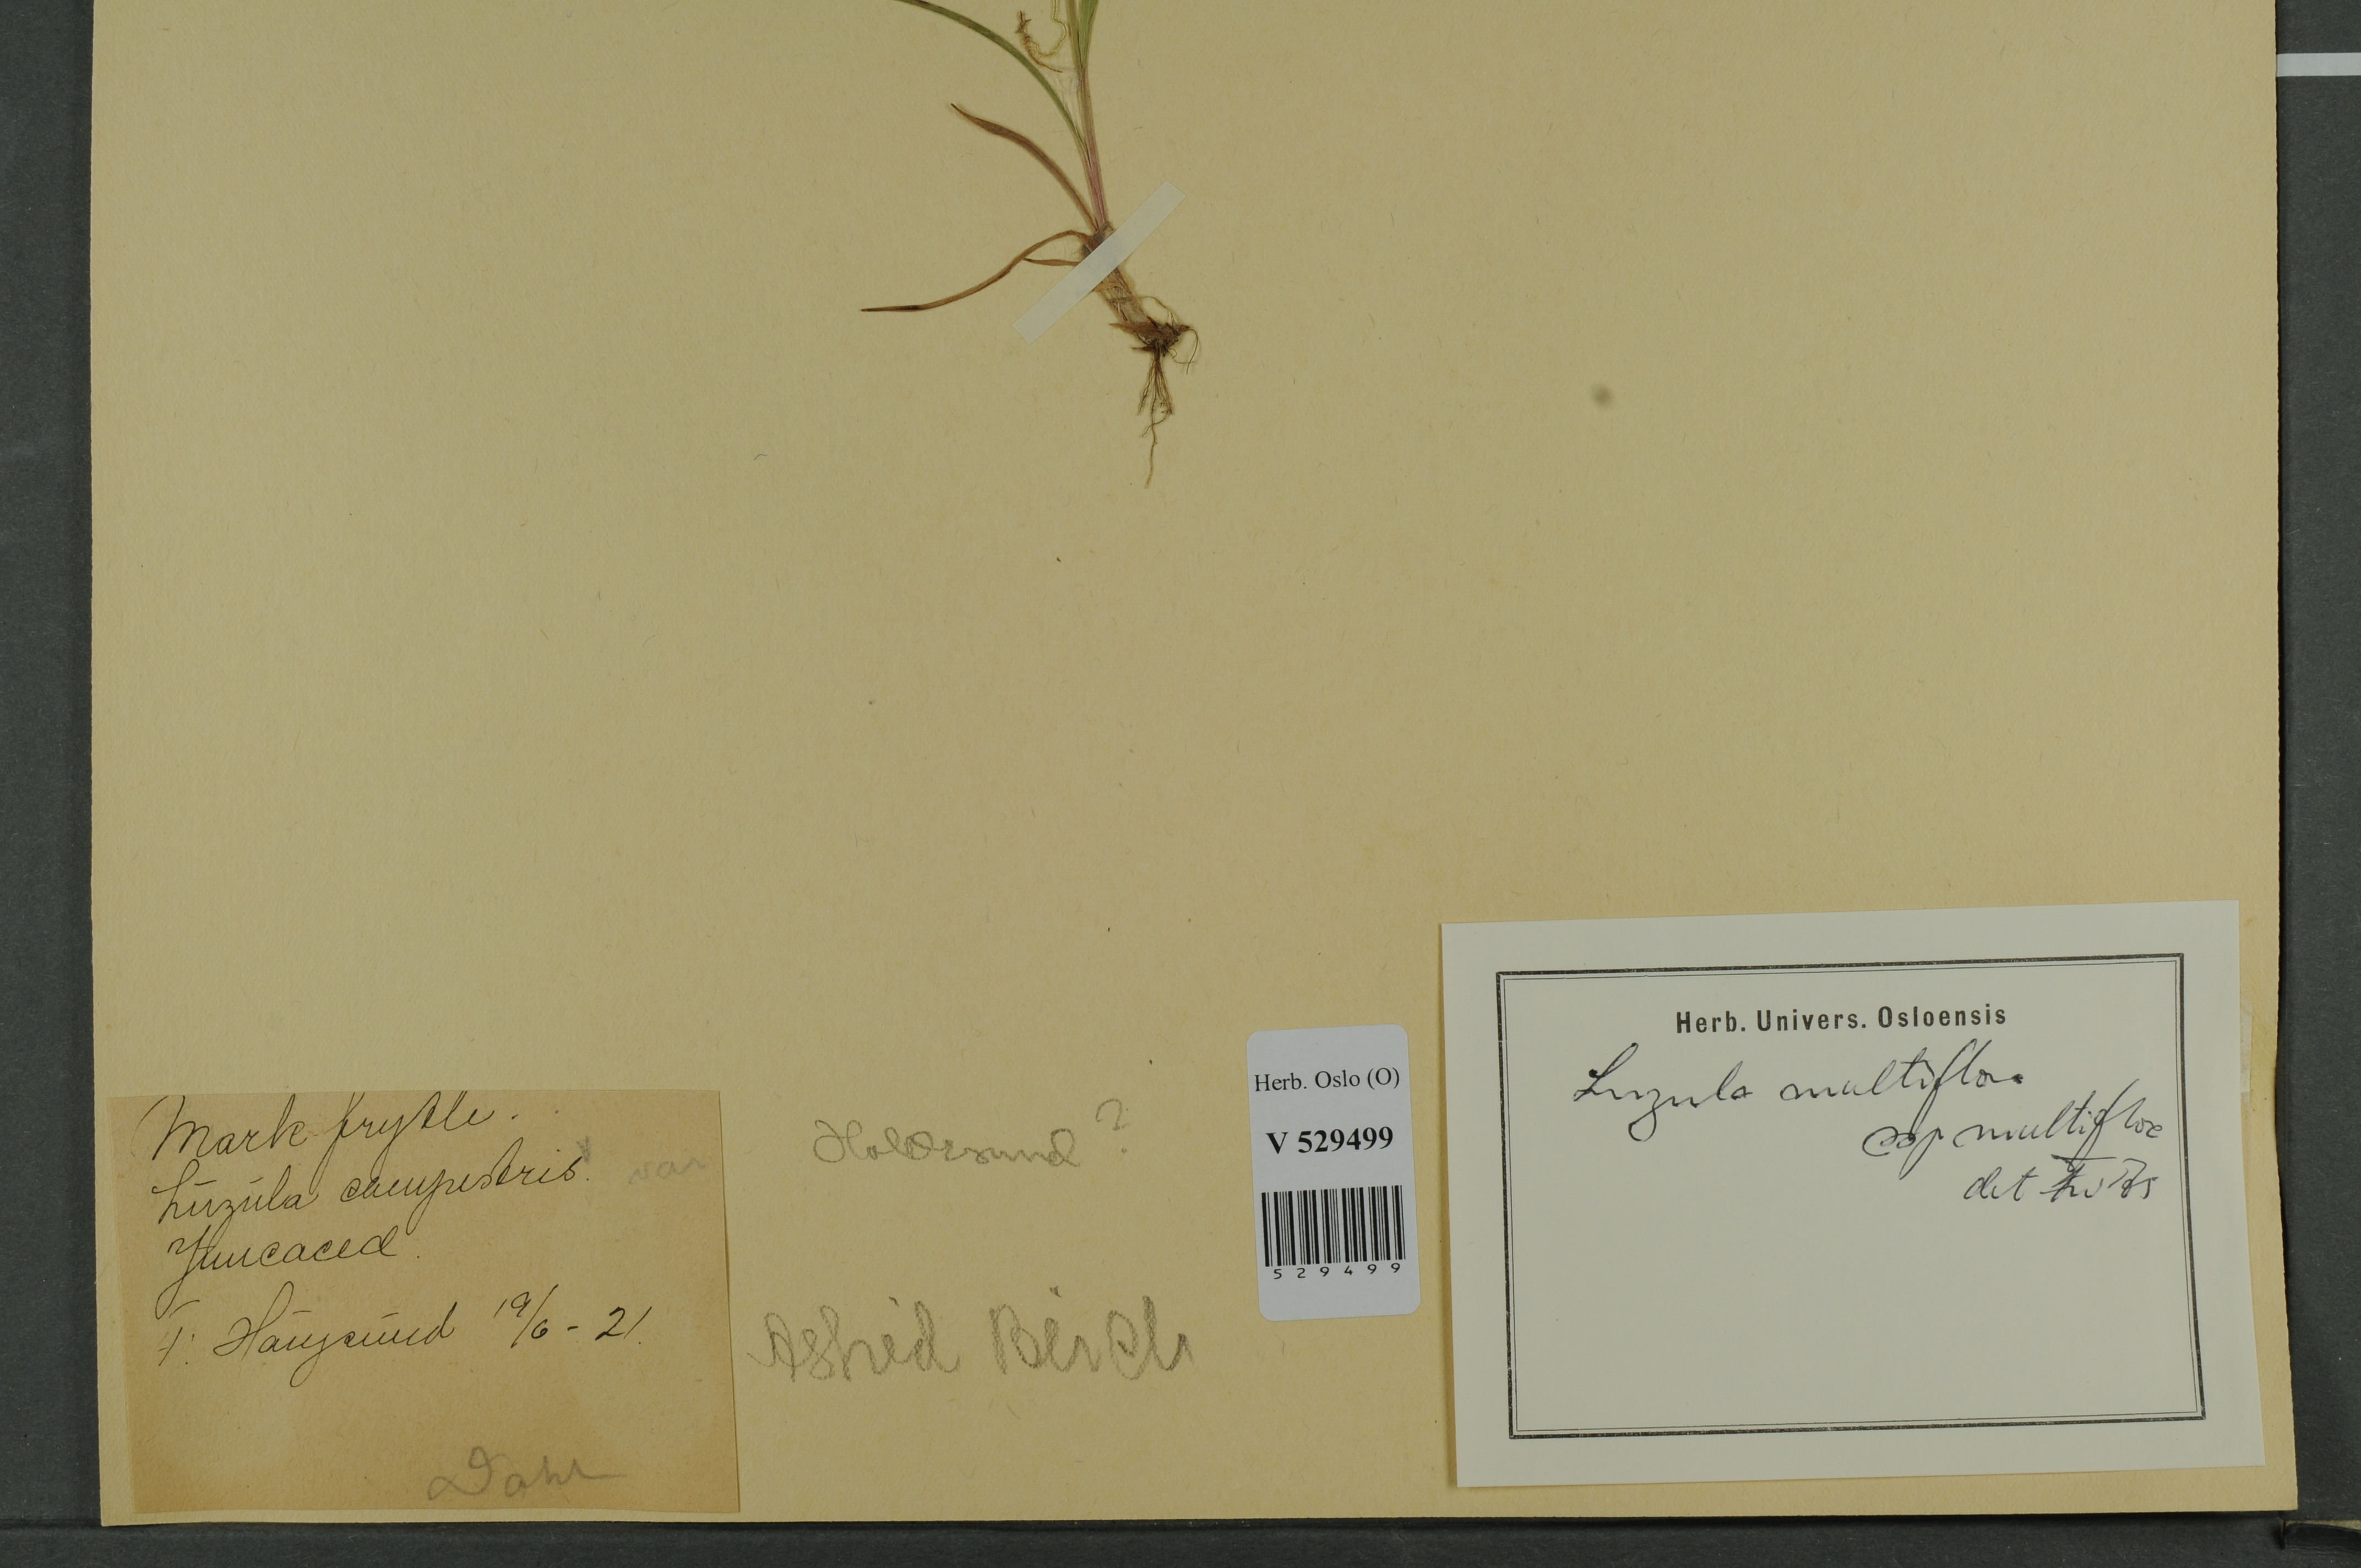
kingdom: Plantae
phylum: Tracheophyta
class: Liliopsida
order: Poales
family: Juncaceae
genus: Luzula
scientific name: Luzula multiflora
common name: Heath wood-rush
